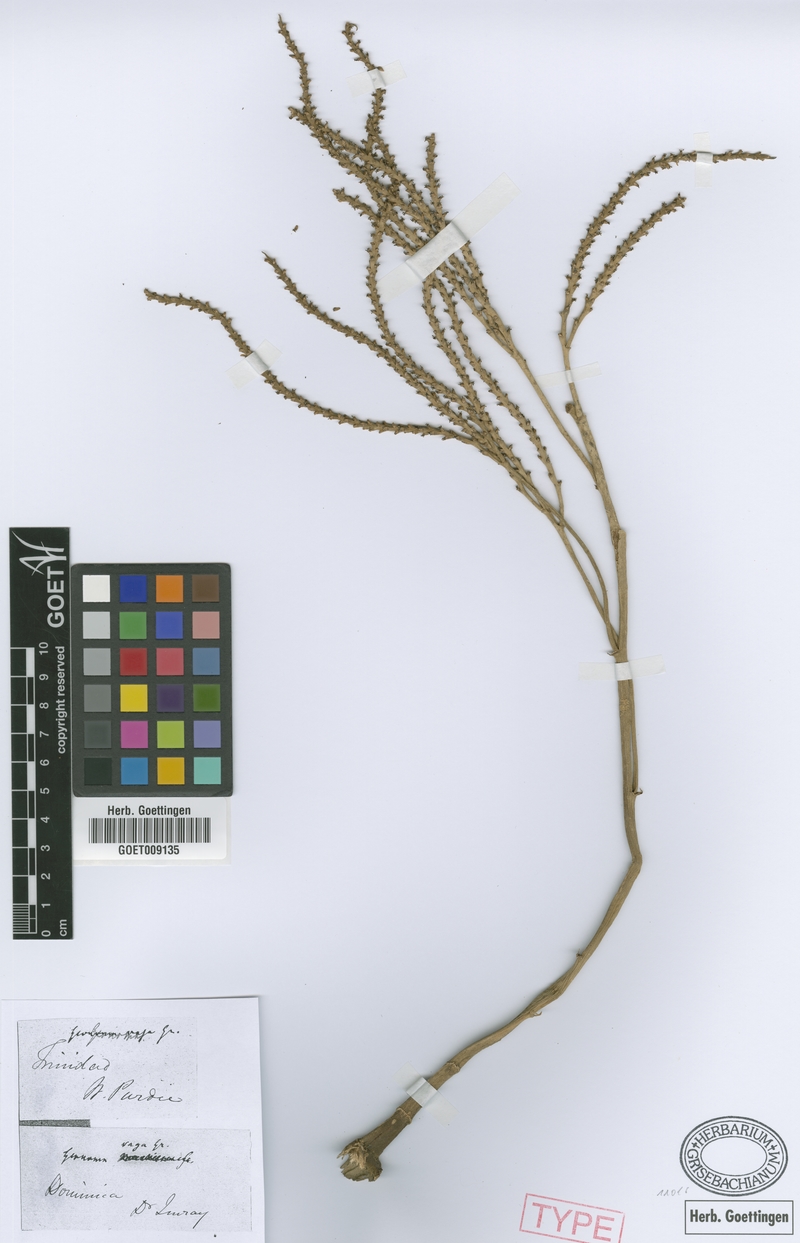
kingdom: Plantae
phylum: Tracheophyta
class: Liliopsida
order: Arecales
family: Arecaceae
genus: Geonoma
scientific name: Geonoma pinnatifrons
